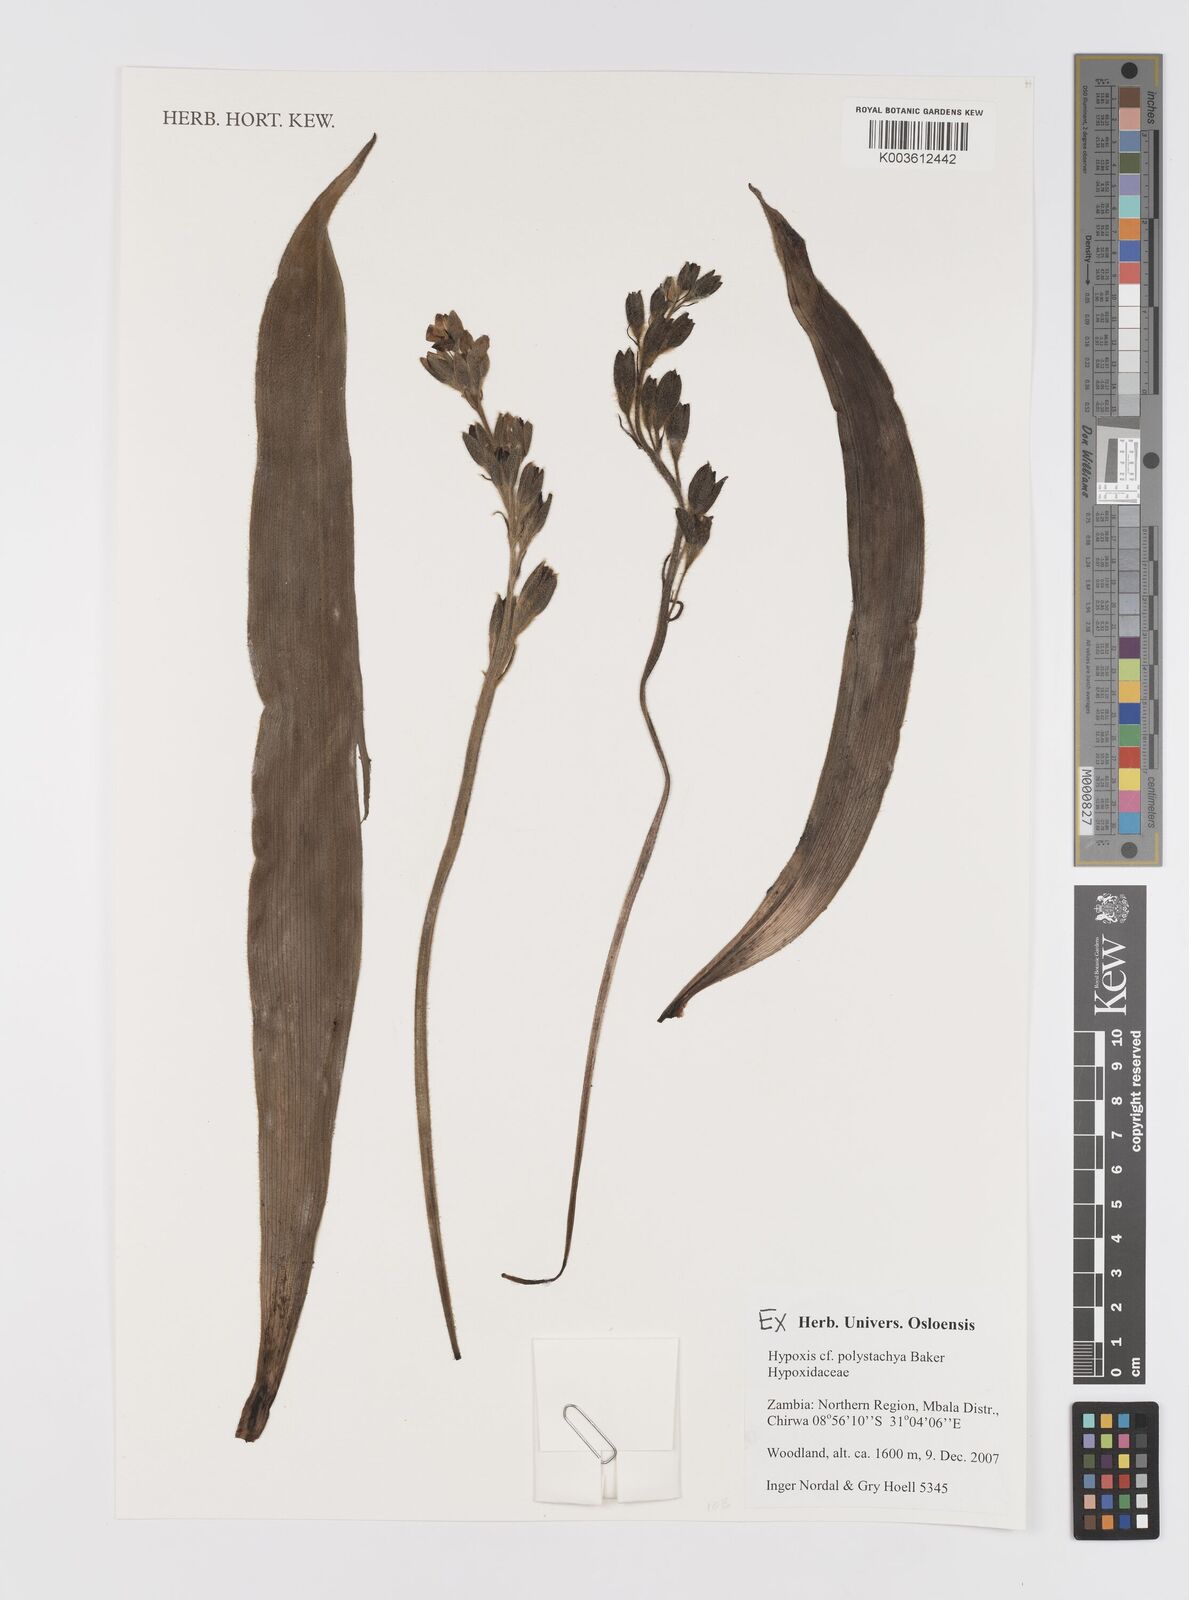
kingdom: Plantae
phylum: Tracheophyta
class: Liliopsida
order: Asparagales
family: Hypoxidaceae
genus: Hypoxis
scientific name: Hypoxis polystachya
